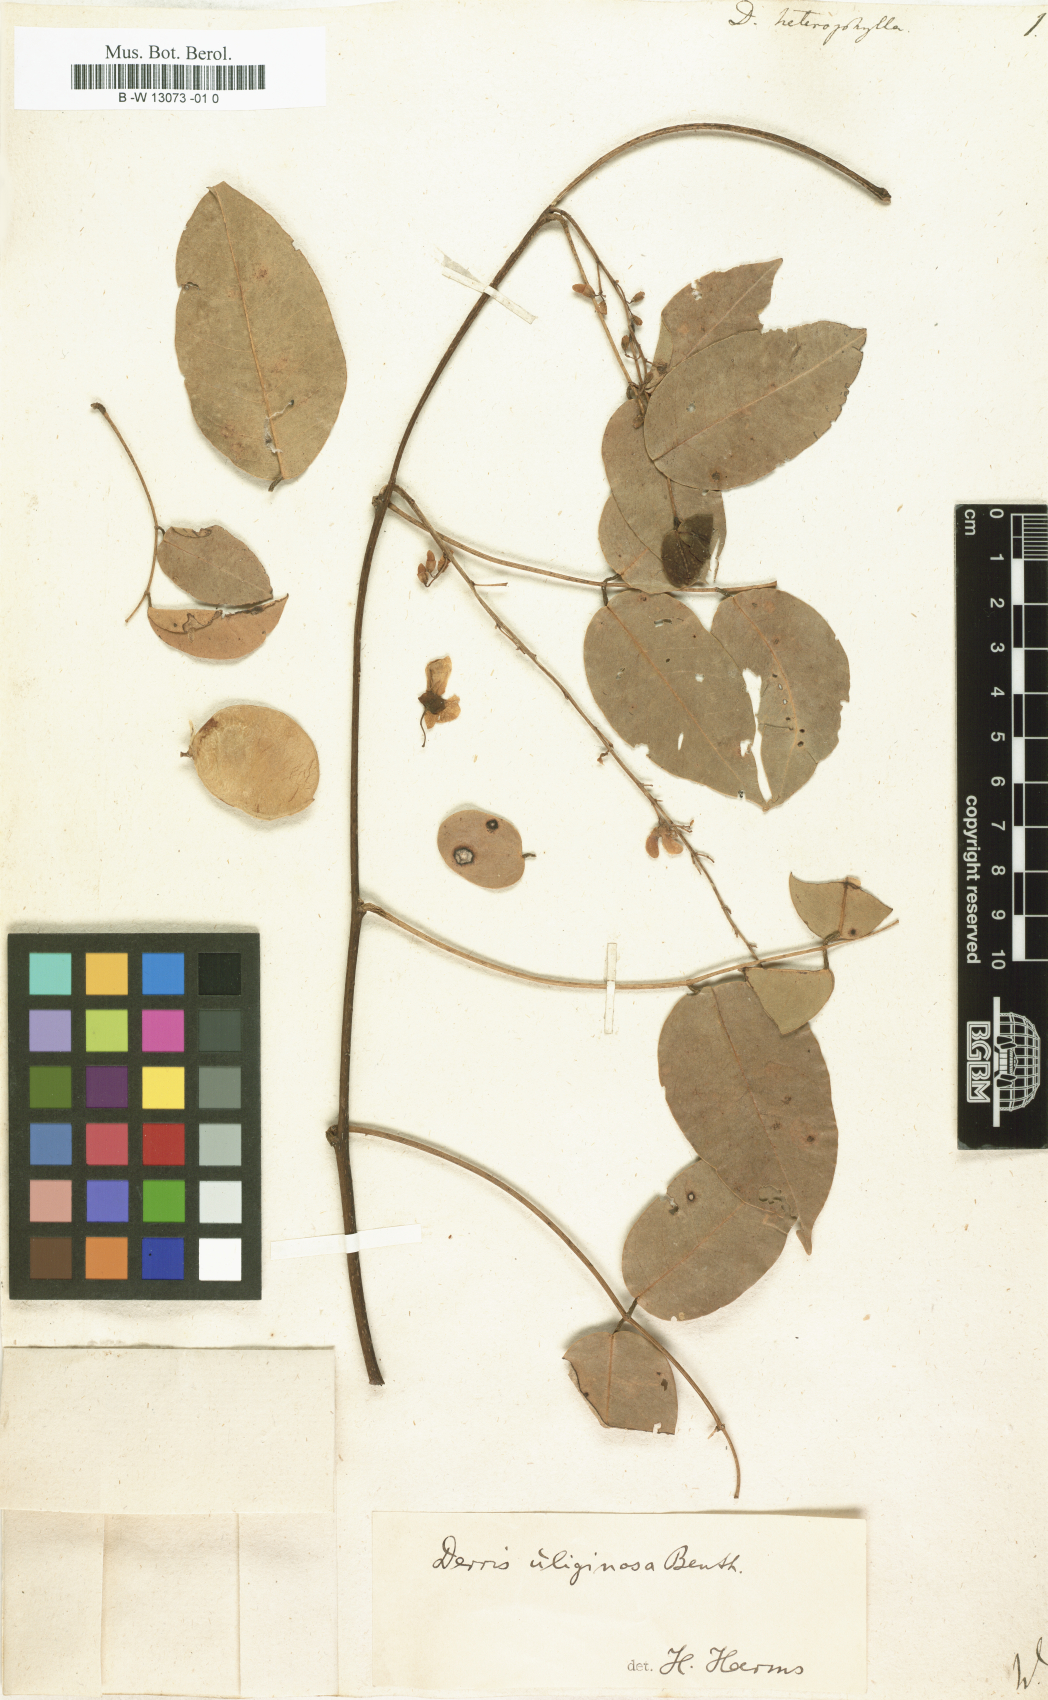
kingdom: Plantae
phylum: Tracheophyta
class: Magnoliopsida
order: Fabales
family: Fabaceae
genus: Derris
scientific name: Derris trifoliata
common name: Three-leaf derris
